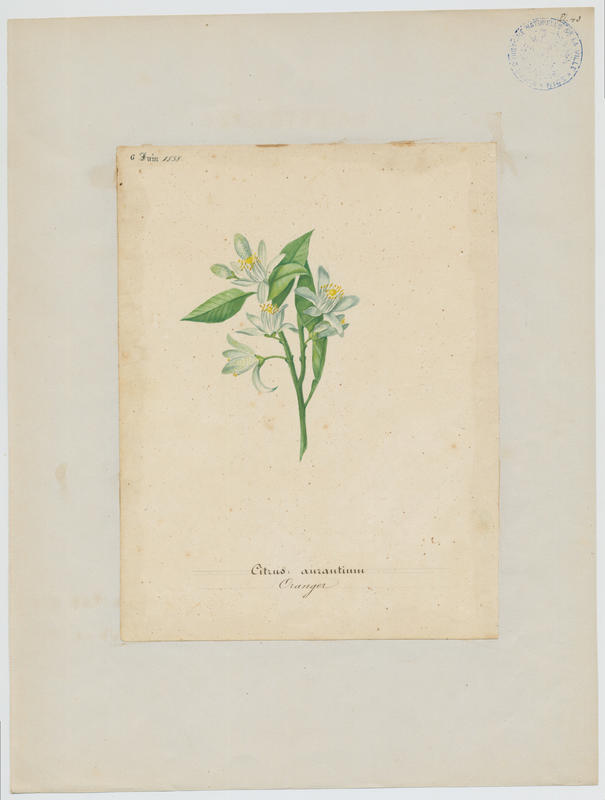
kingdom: Plantae
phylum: Tracheophyta
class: Magnoliopsida
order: Sapindales
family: Rutaceae
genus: Citrus
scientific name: Citrus aurantium
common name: Sour orange
